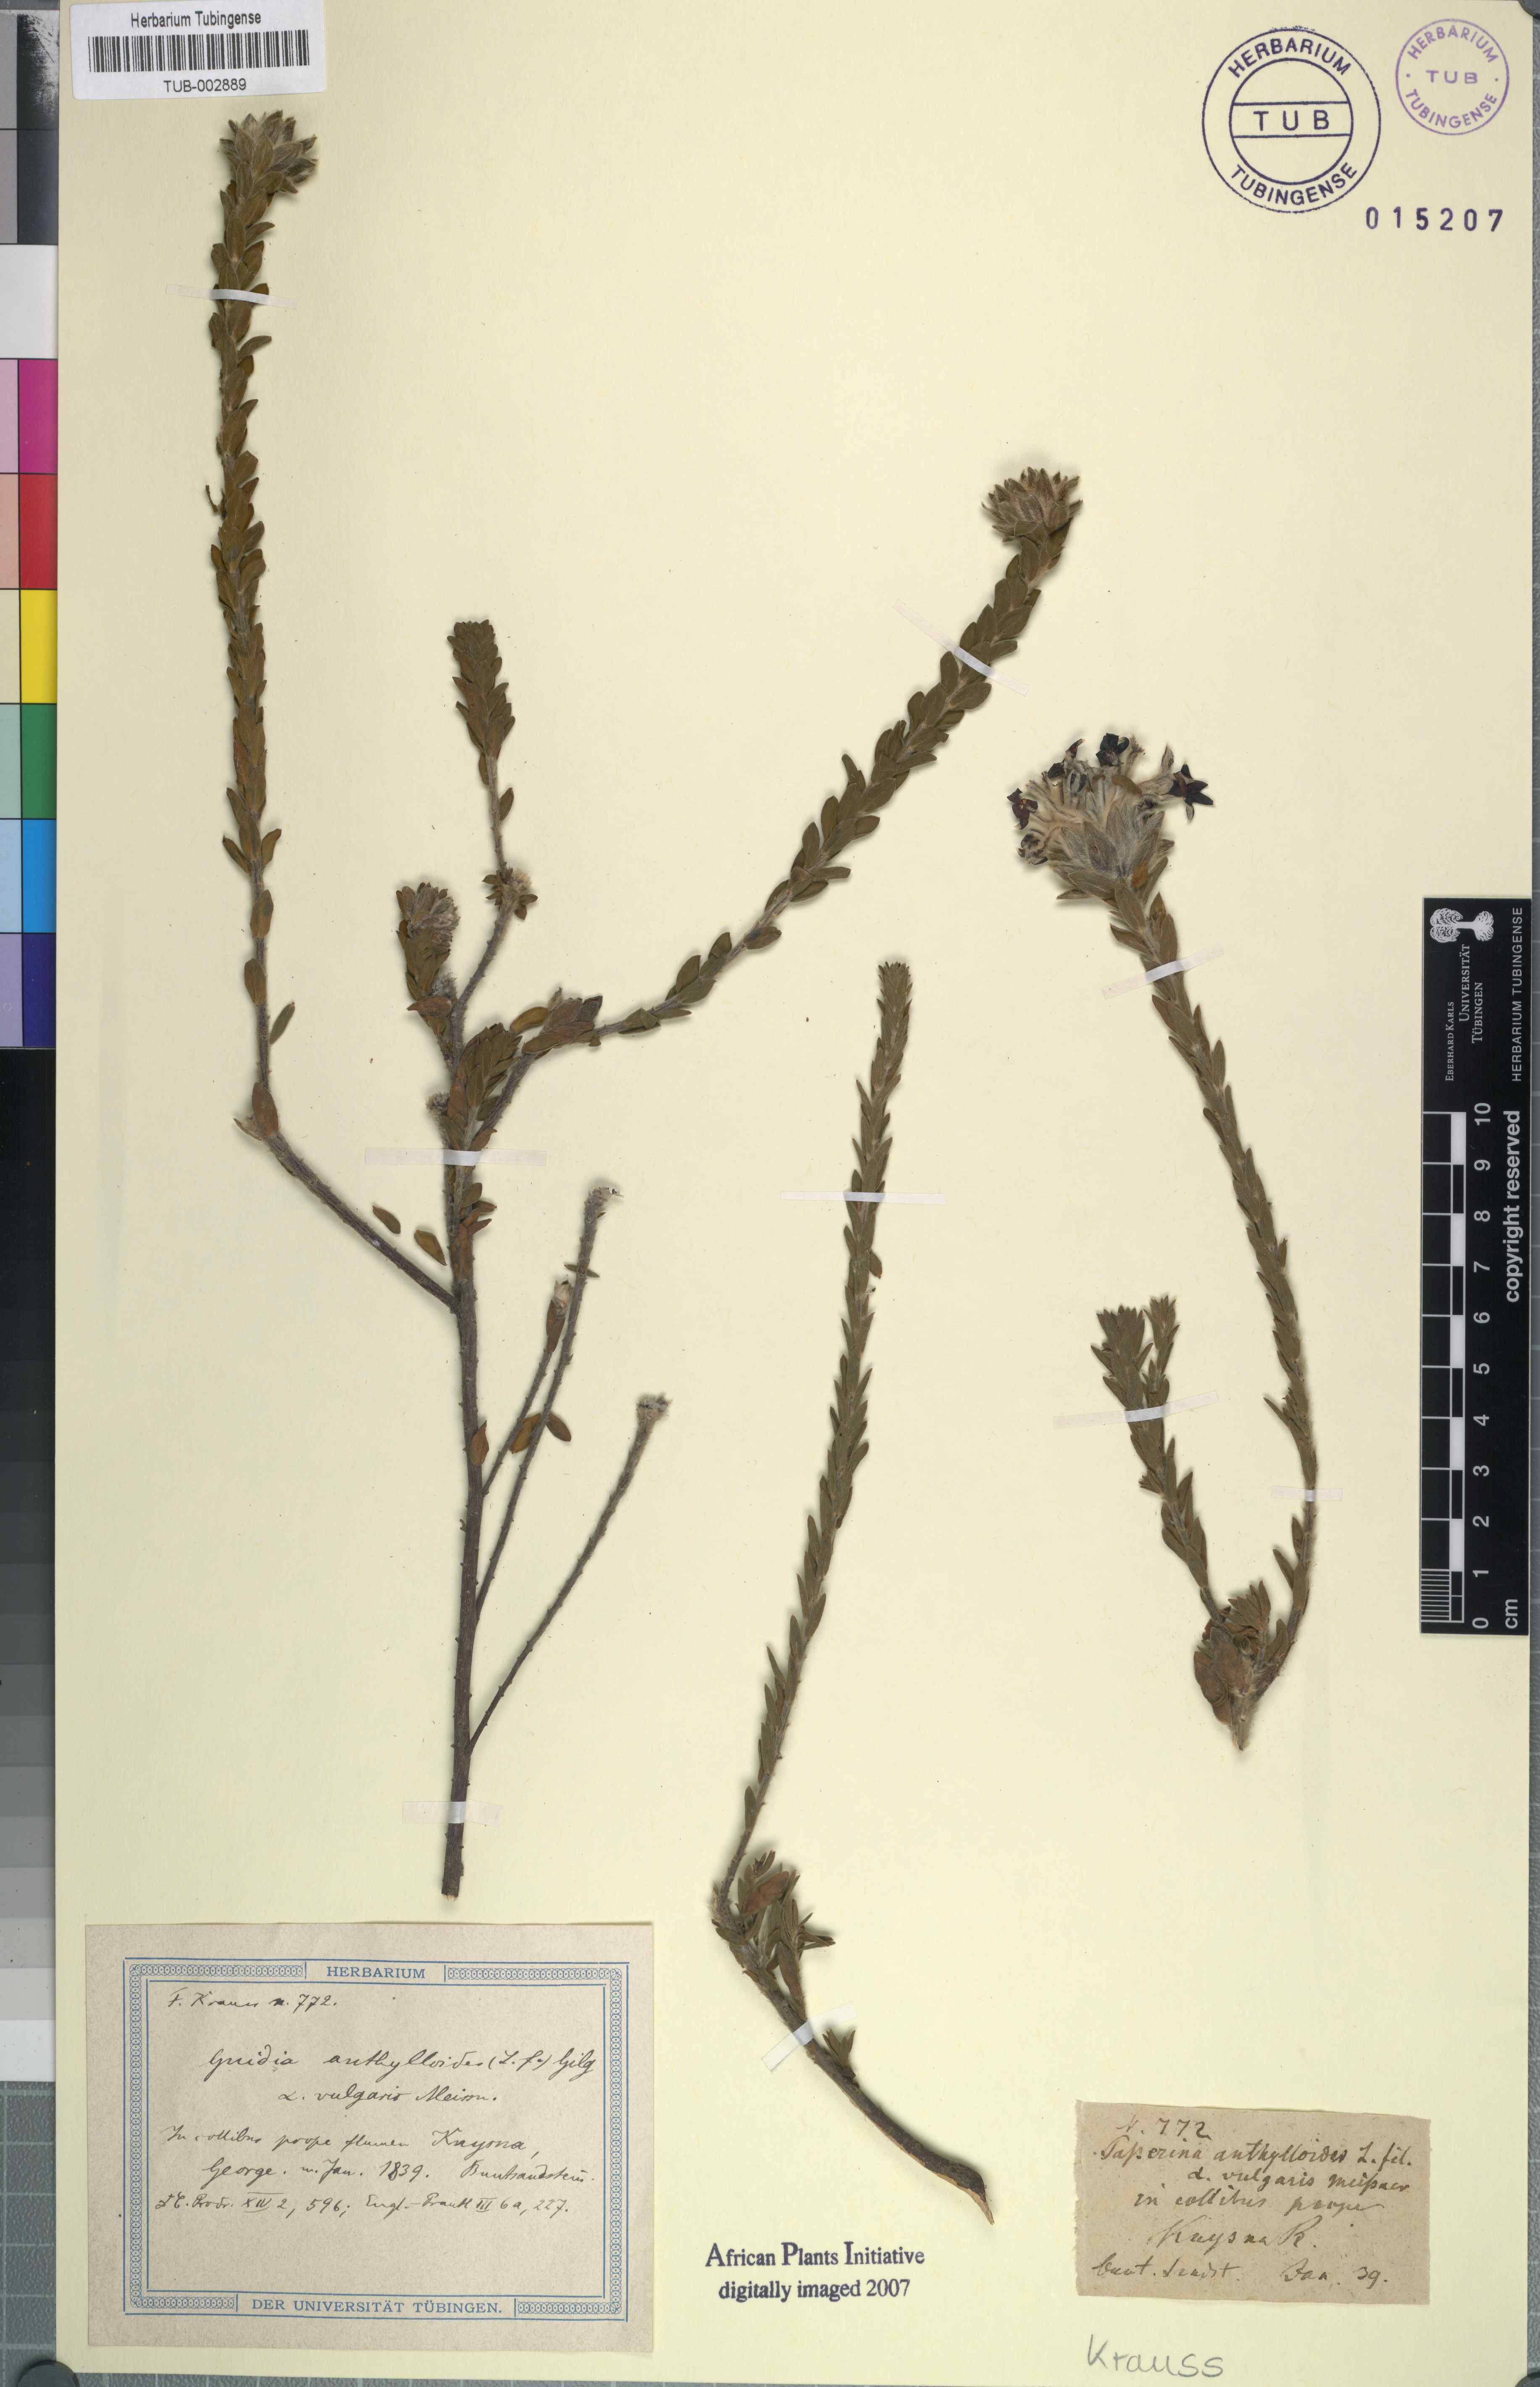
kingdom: Plantae
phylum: Tracheophyta
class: Magnoliopsida
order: Malvales
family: Thymelaeaceae
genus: Gnidia
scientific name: Gnidia anthylloides
